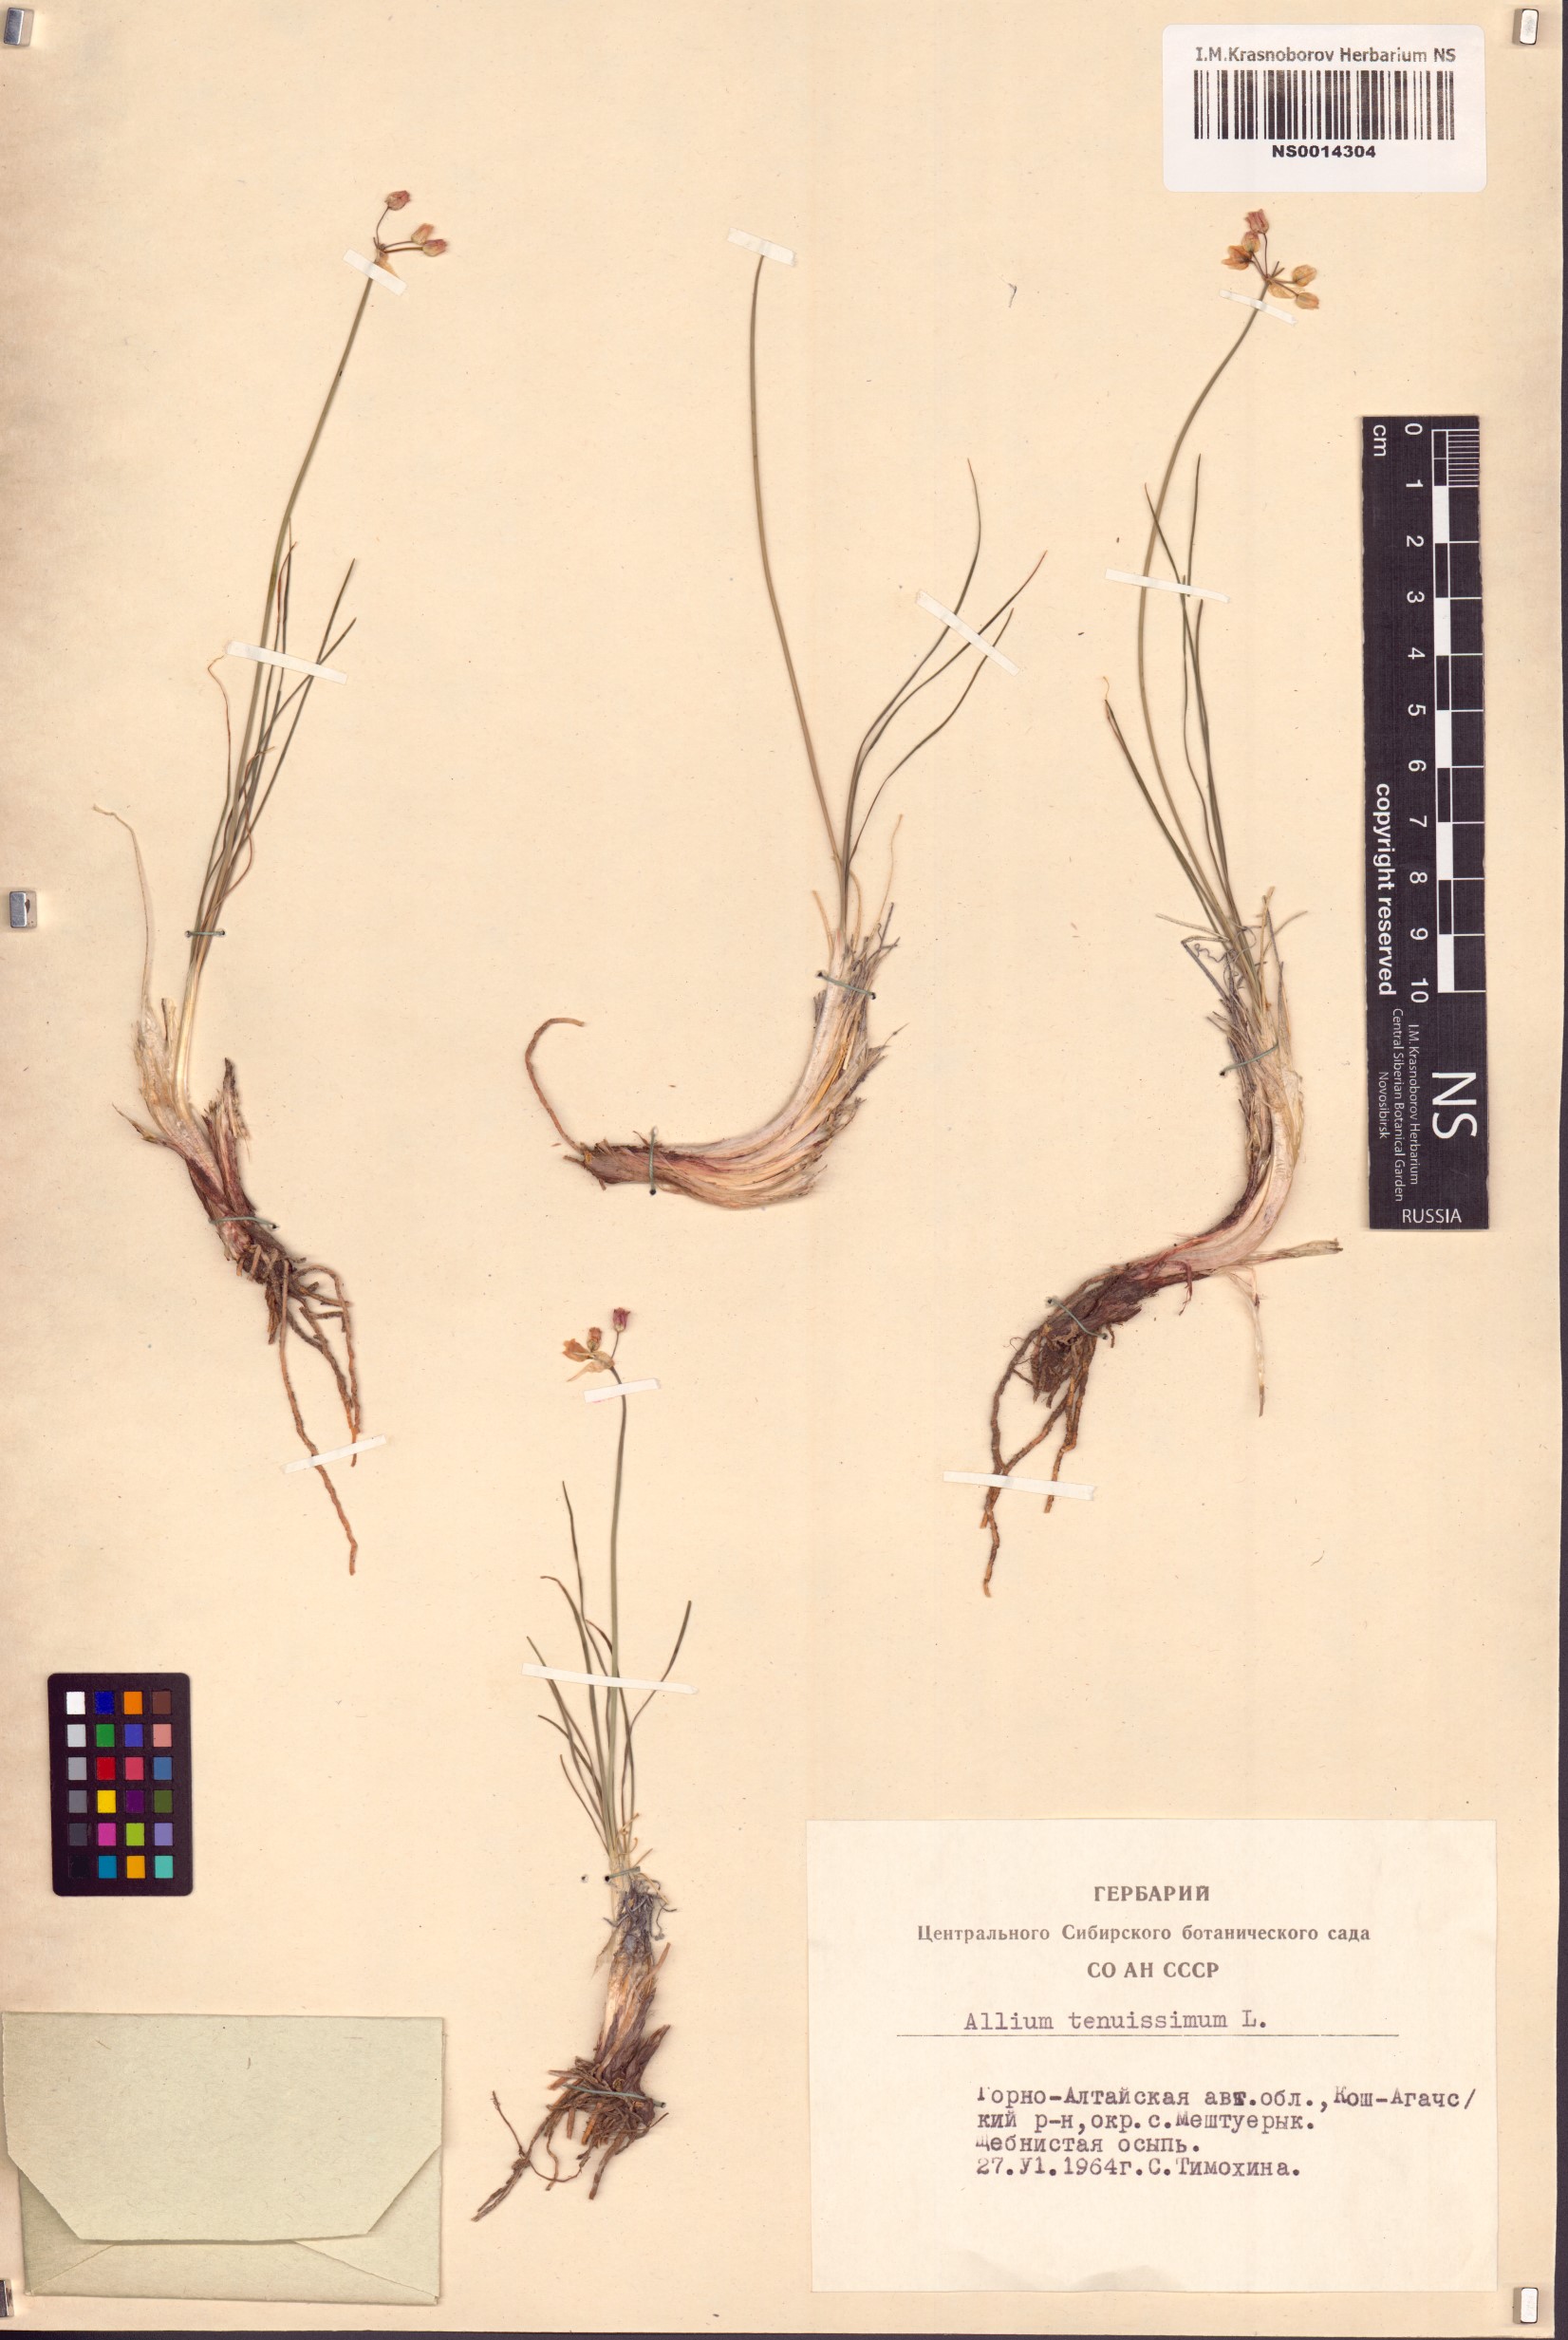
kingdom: Plantae
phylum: Tracheophyta
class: Liliopsida
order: Asparagales
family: Amaryllidaceae
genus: Allium
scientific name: Allium tenuissimum
